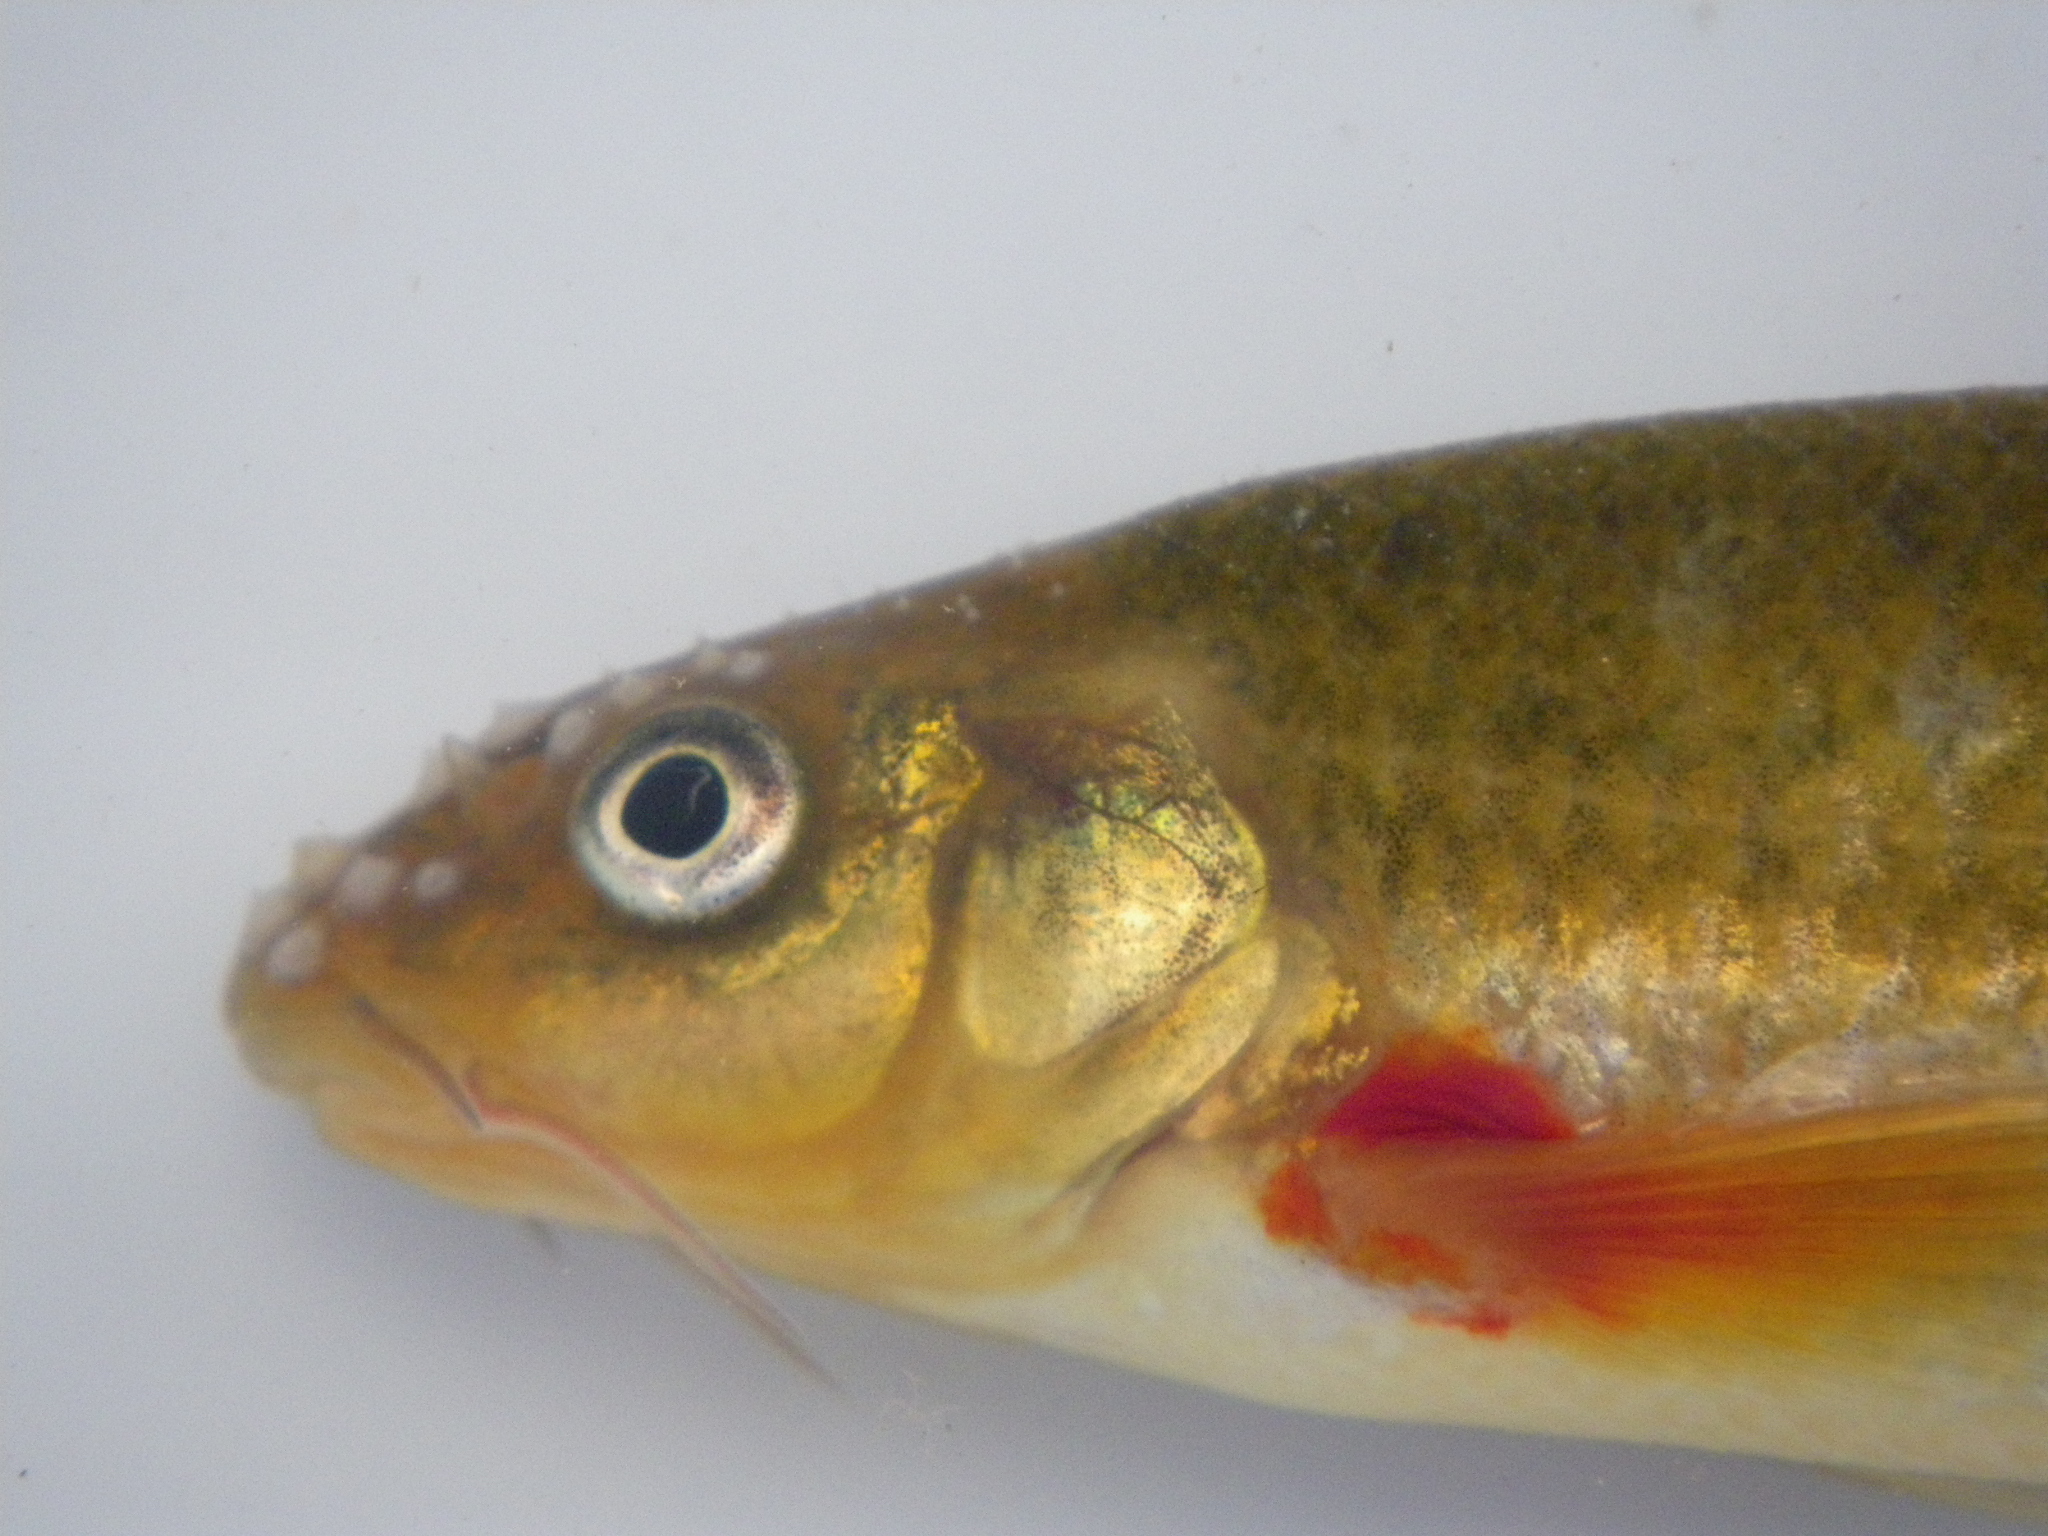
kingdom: Animalia
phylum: Chordata
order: Cypriniformes
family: Cyprinidae
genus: Pseudobarbus
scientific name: Pseudobarbus burchelli
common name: Burchell's redfin
